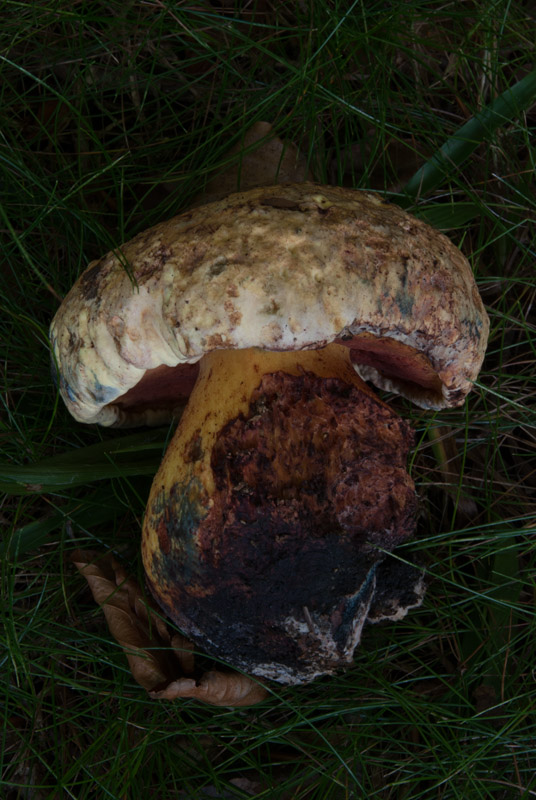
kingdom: Fungi
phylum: Basidiomycota
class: Agaricomycetes
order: Boletales
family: Boletaceae
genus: Imperator
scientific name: Imperator rhodopurpureus
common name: purpur-rørhat
